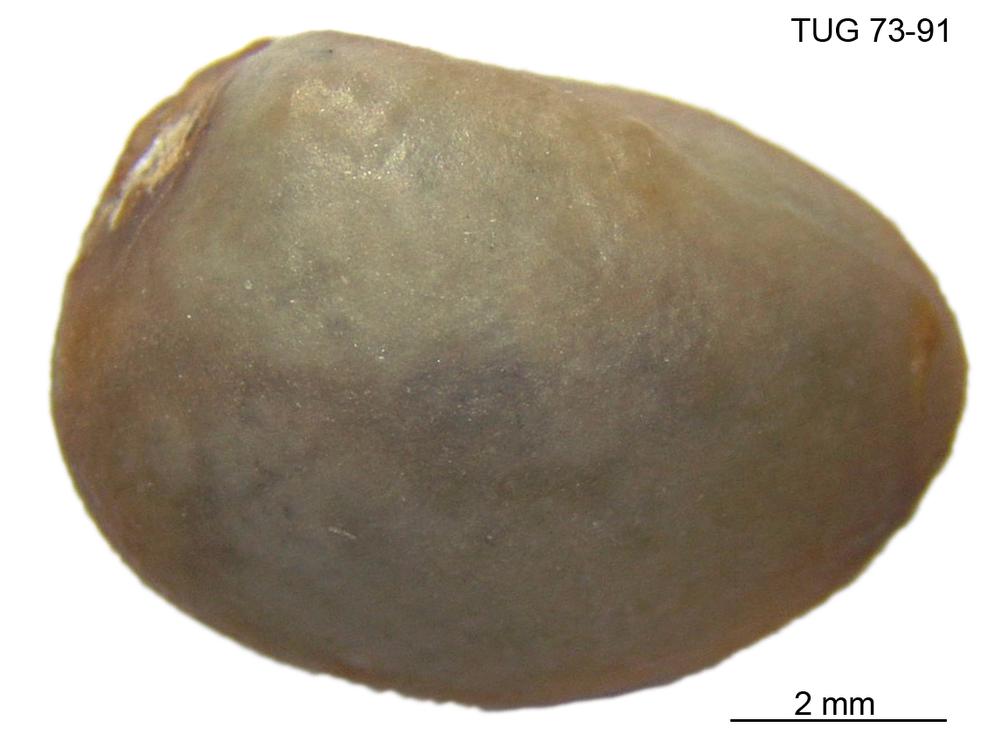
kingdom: Animalia
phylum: Mollusca
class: Bivalvia
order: Solemyida
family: Ctenodontidae
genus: Ctenodonta
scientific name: Ctenodonta
